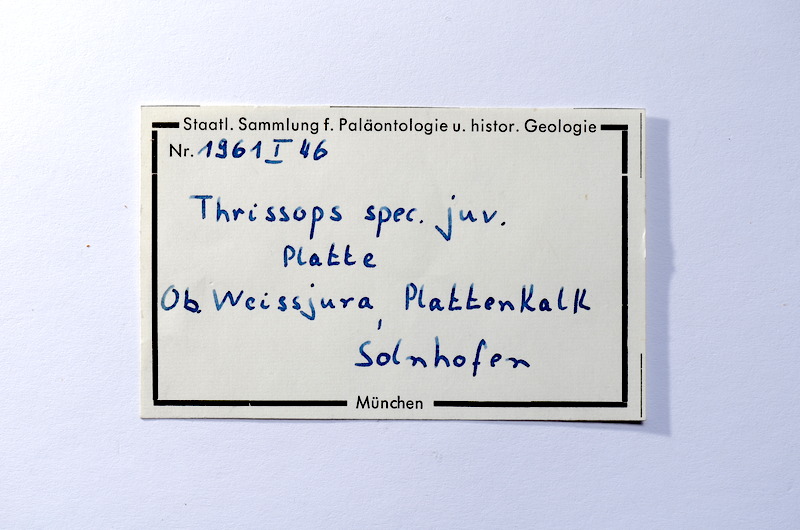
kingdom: Animalia
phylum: Chordata
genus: Thrissops
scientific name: Thrissops
